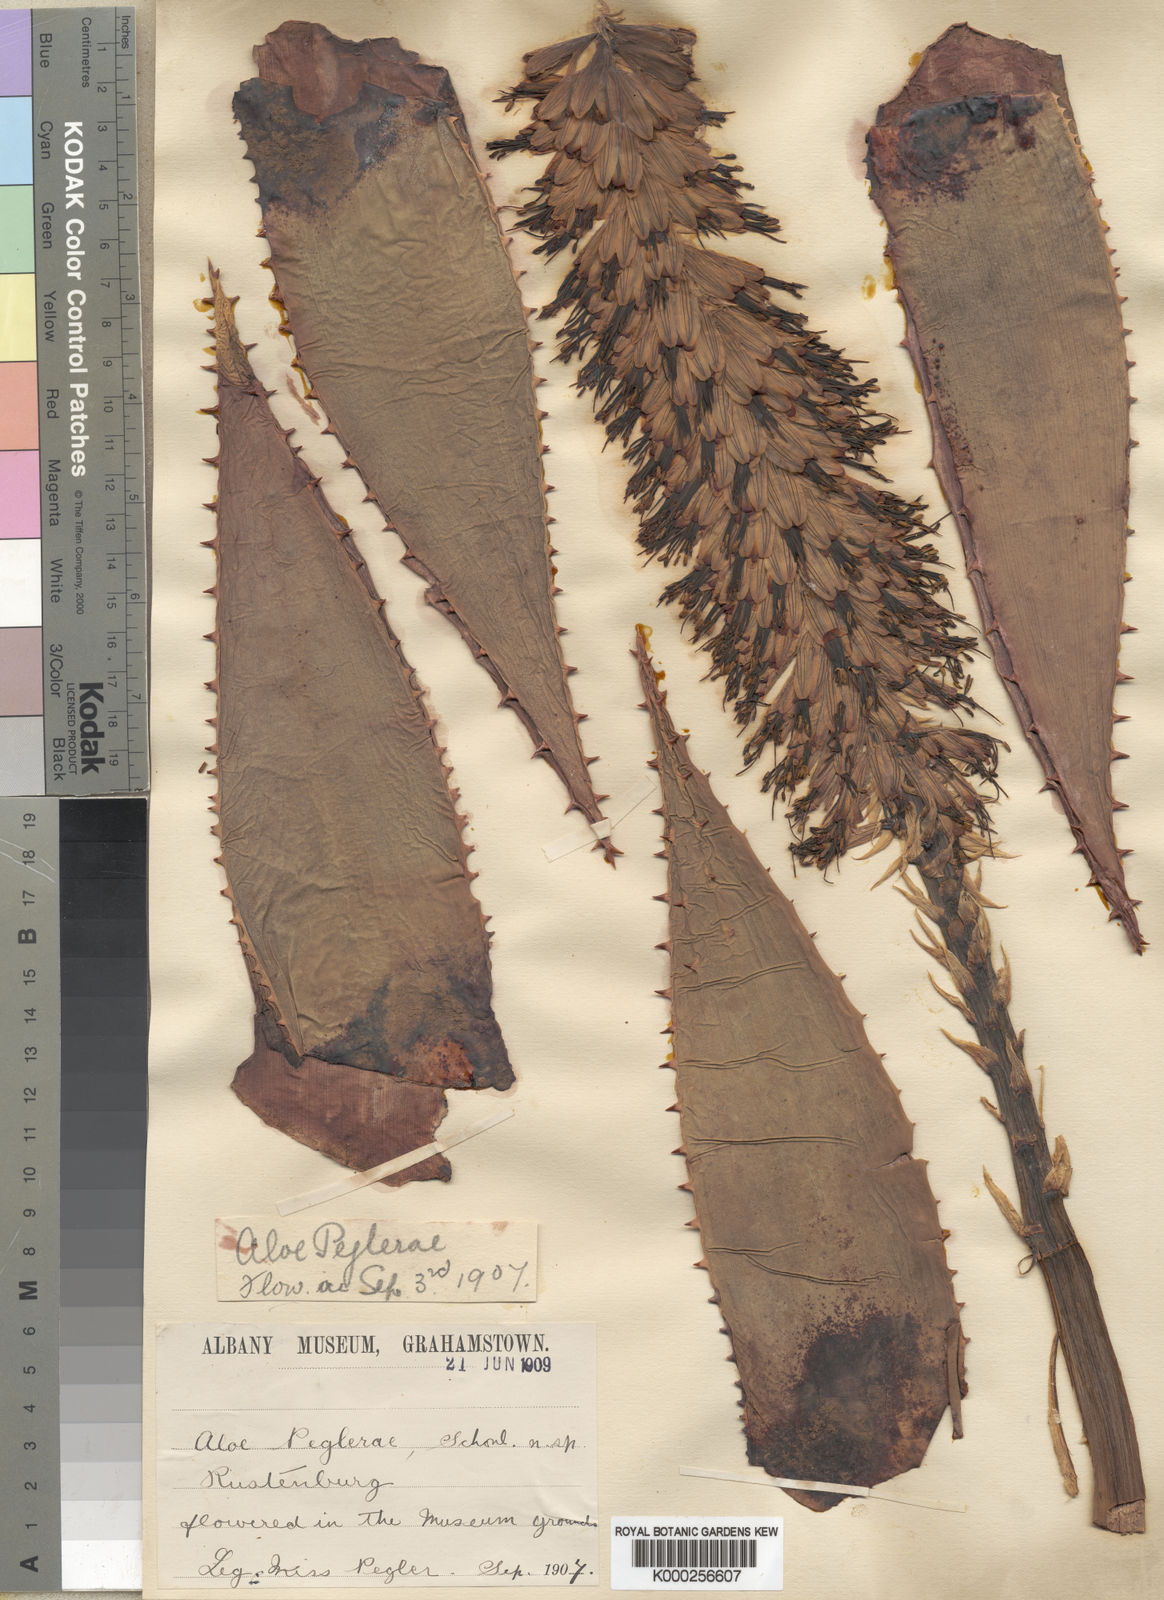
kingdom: Plantae
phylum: Tracheophyta
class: Liliopsida
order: Asparagales
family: Asphodelaceae
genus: Aloe
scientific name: Aloe
